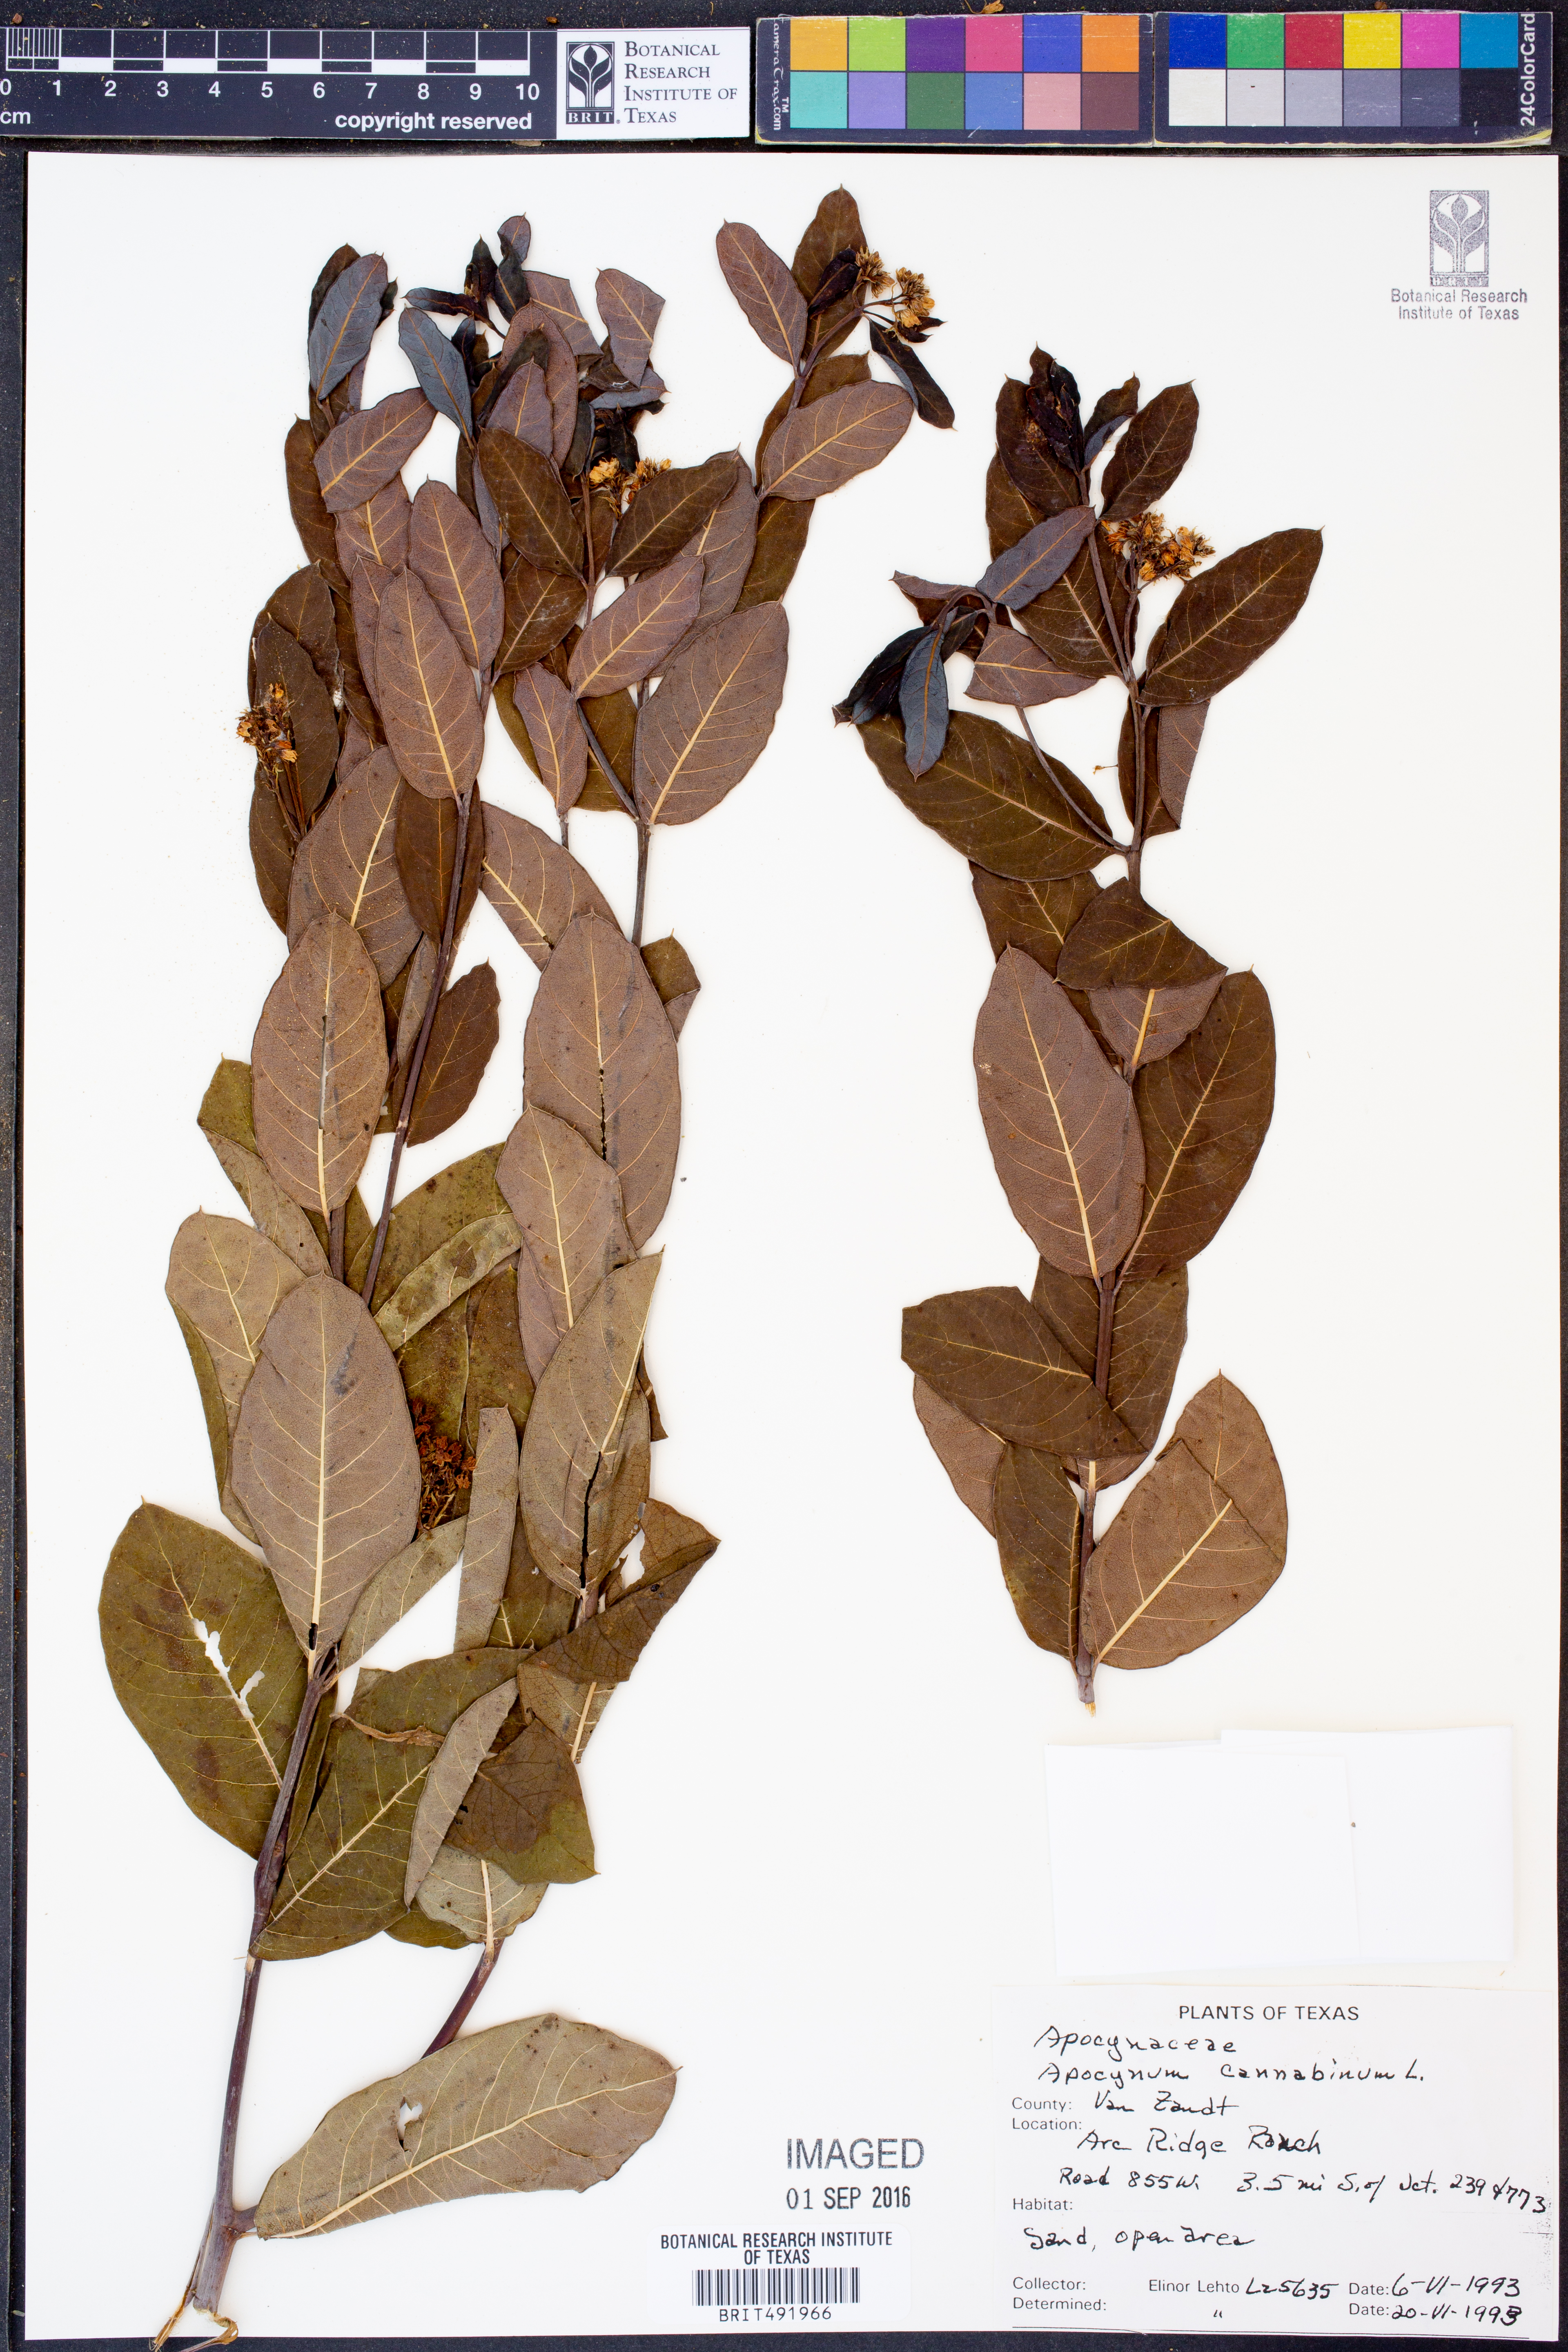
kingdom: Plantae
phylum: Tracheophyta
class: Magnoliopsida
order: Gentianales
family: Apocynaceae
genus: Apocynum
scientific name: Apocynum cannabinum
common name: Hemp dogbane
